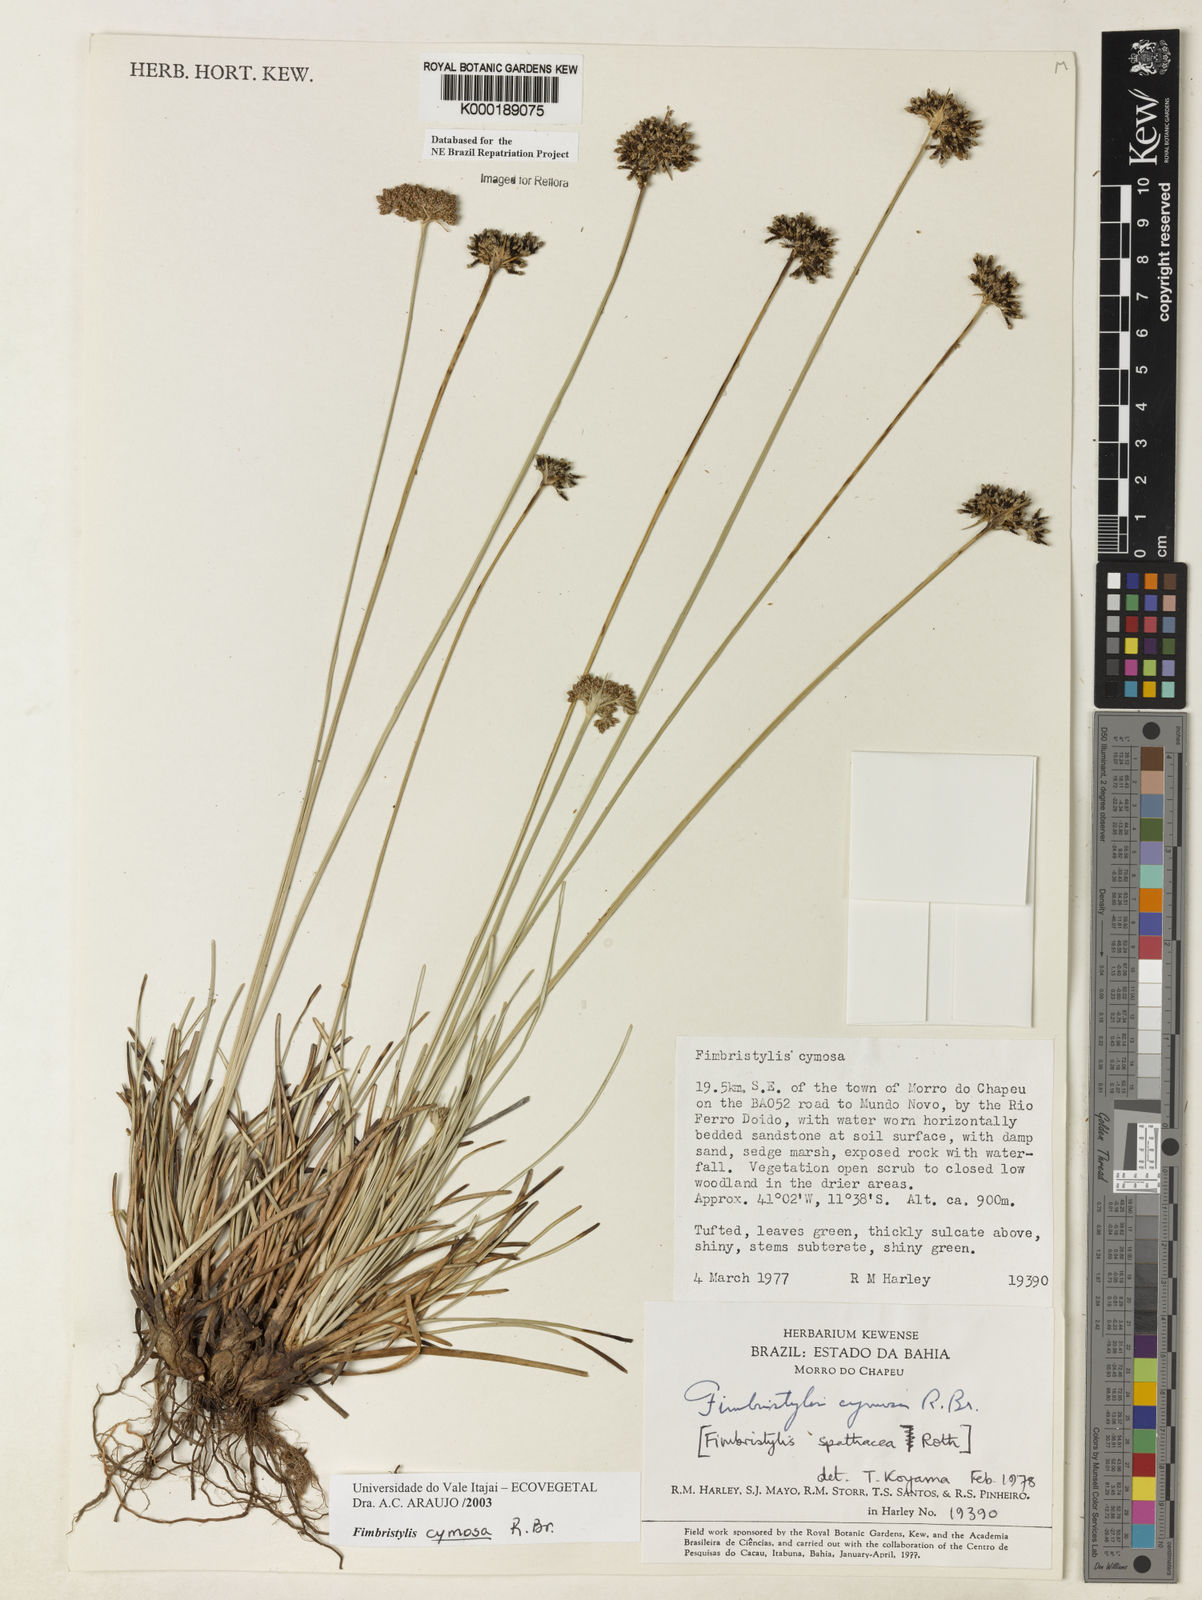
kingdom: Plantae
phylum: Tracheophyta
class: Liliopsida
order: Poales
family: Cyperaceae
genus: Fimbristylis
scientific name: Fimbristylis cymosa
